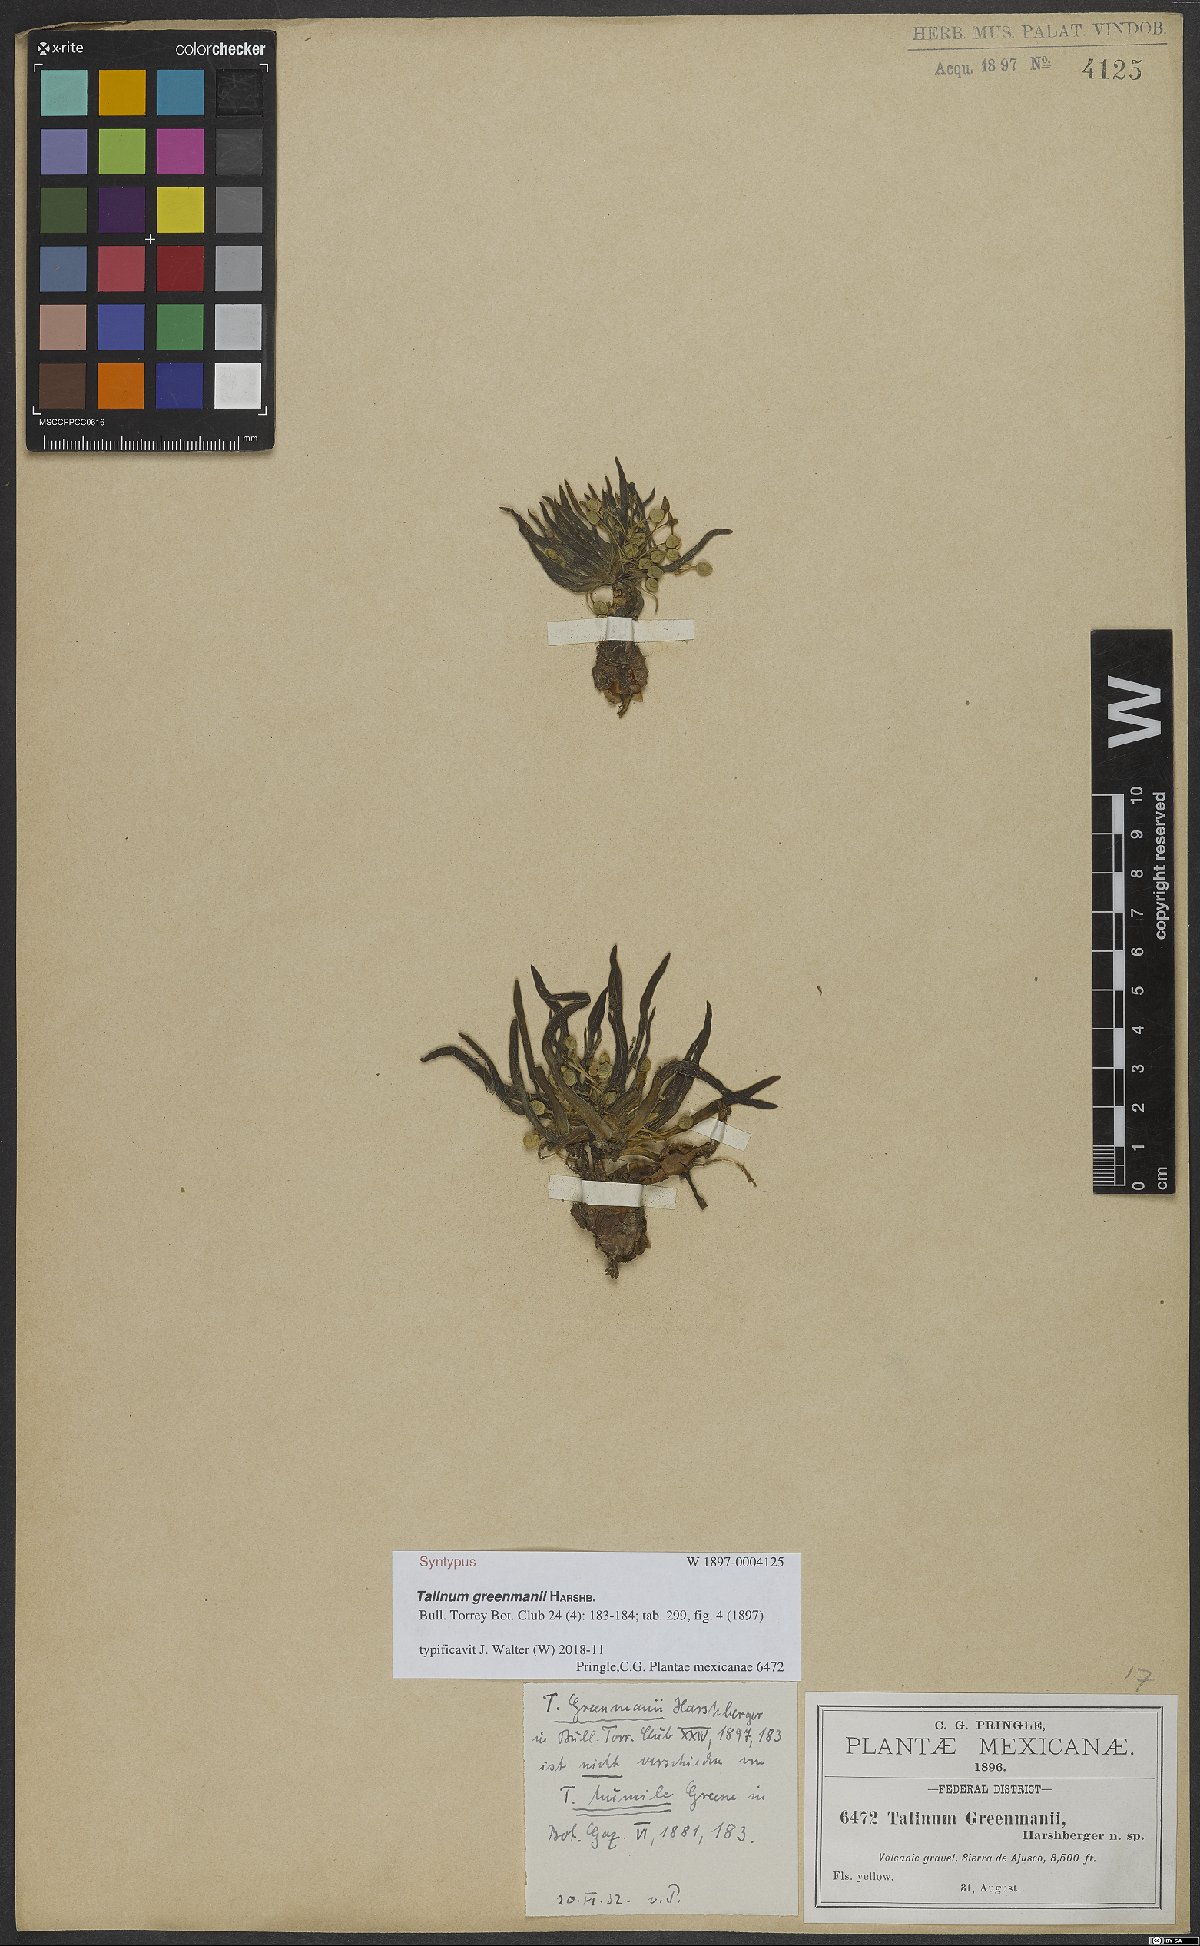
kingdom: Plantae
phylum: Tracheophyta
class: Magnoliopsida
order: Caryophyllales
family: Montiaceae
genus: Phemeranthus
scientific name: Phemeranthus greenmanii
